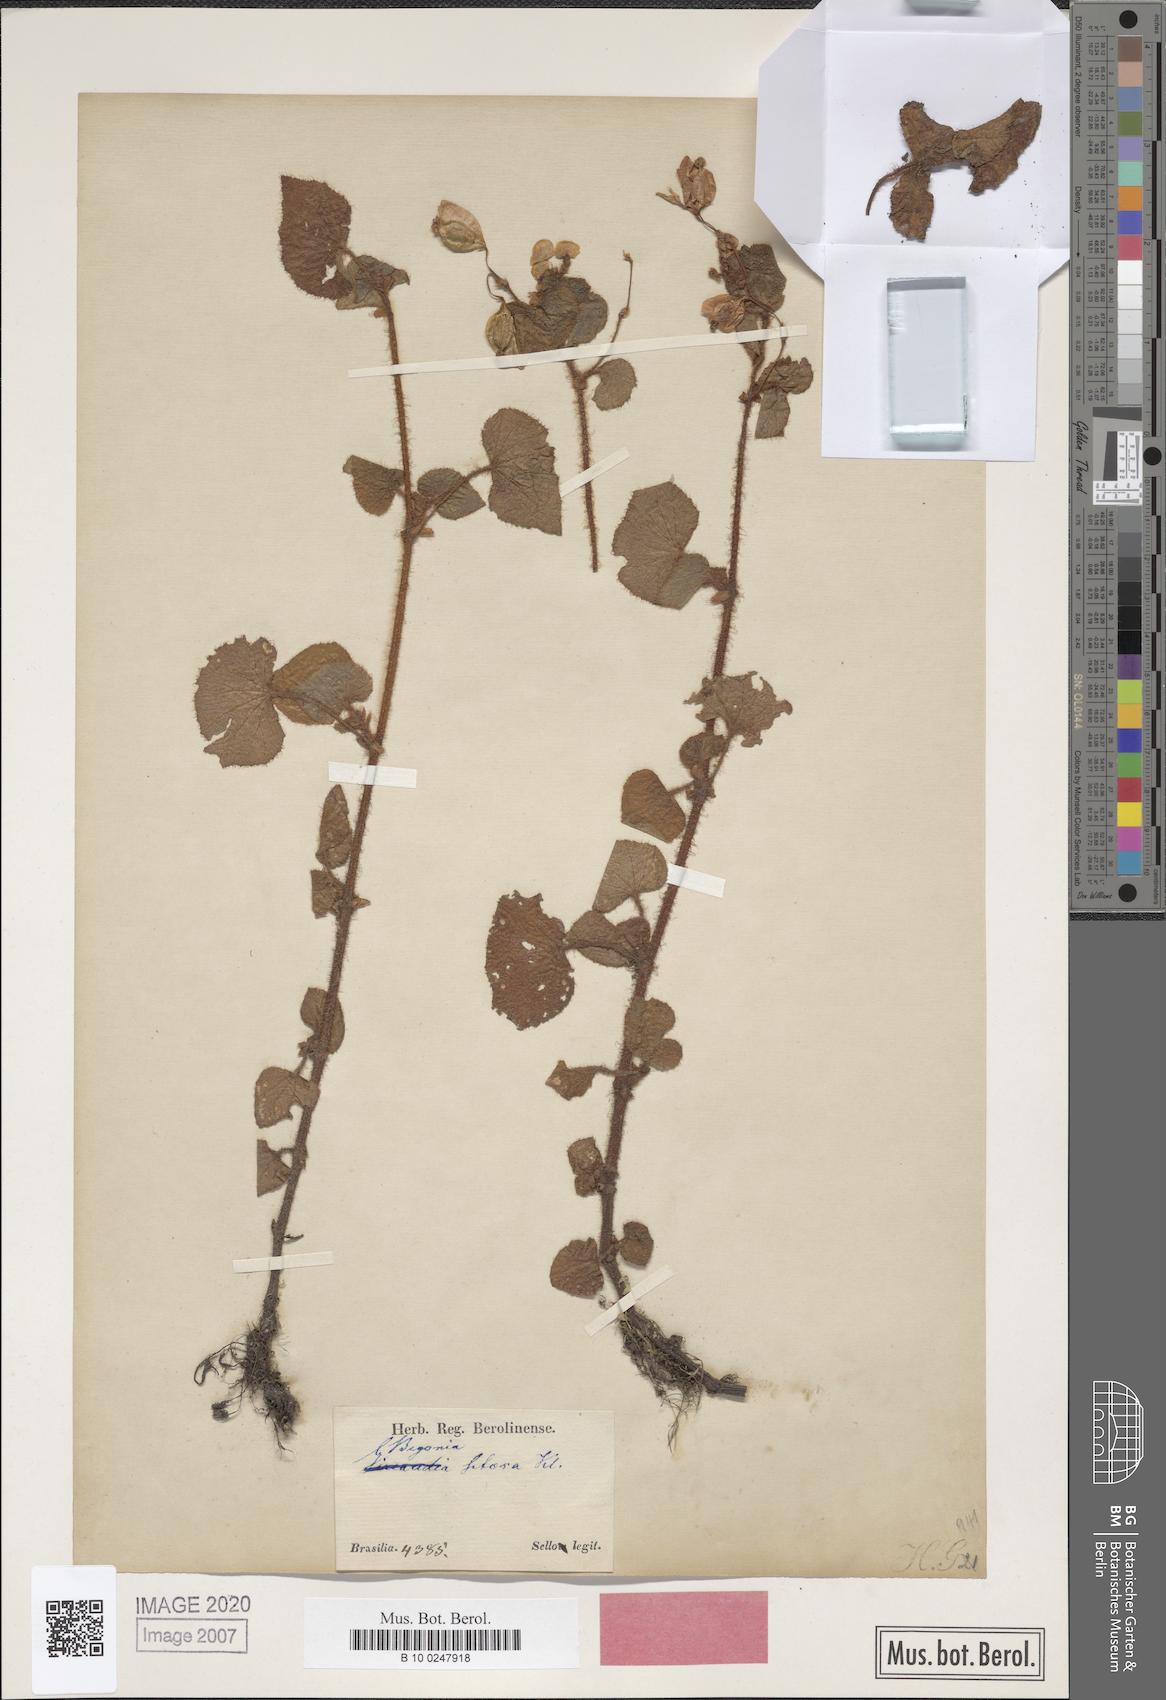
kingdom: Plantae
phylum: Tracheophyta
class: Magnoliopsida
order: Cucurbitales
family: Begoniaceae
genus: Begonia
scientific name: Begonia fischeri
